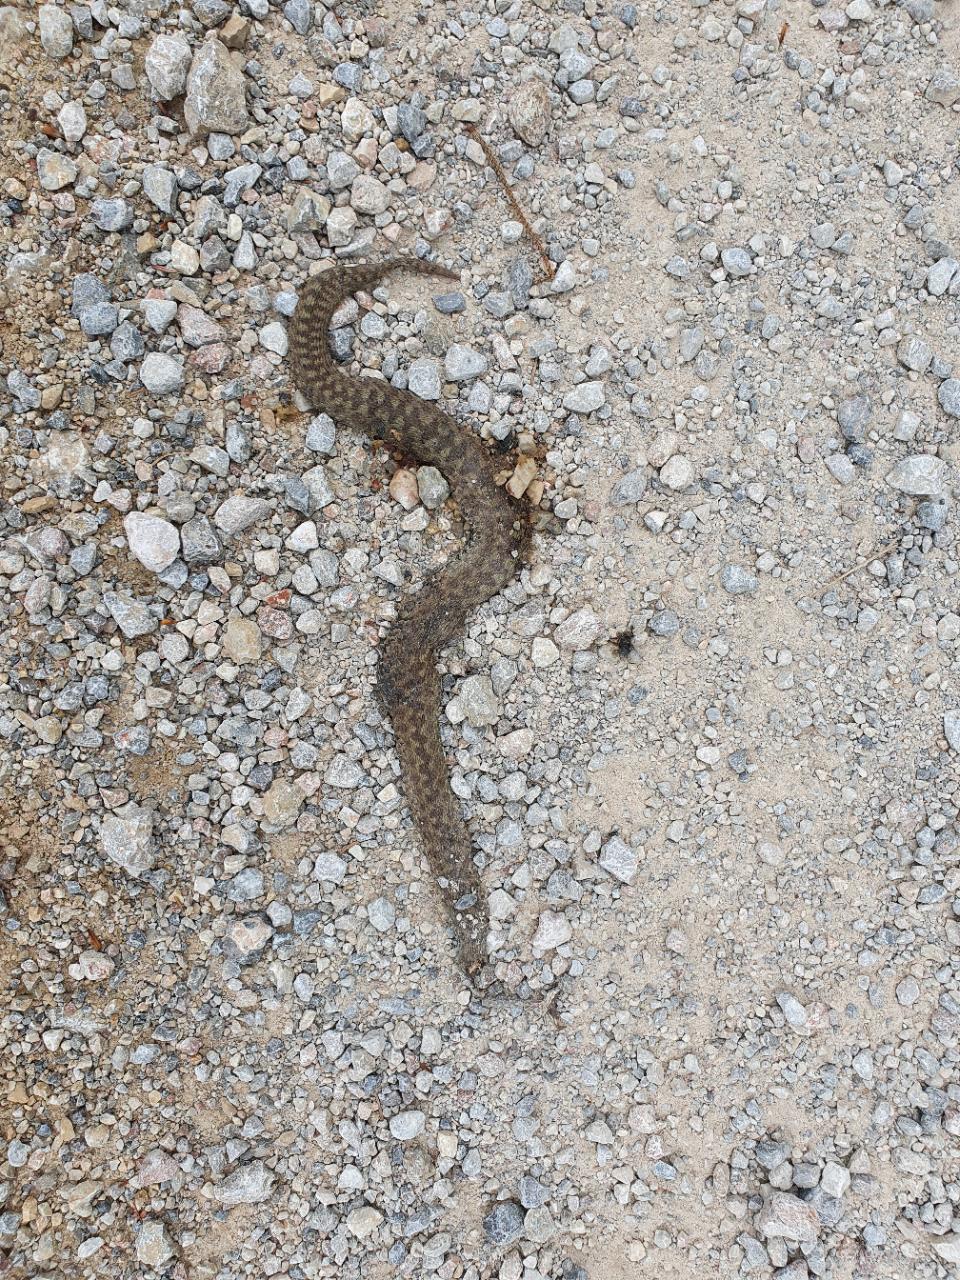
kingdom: Animalia
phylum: Chordata
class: Squamata
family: Viperidae
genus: Vipera
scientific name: Vipera berus
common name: Adder
